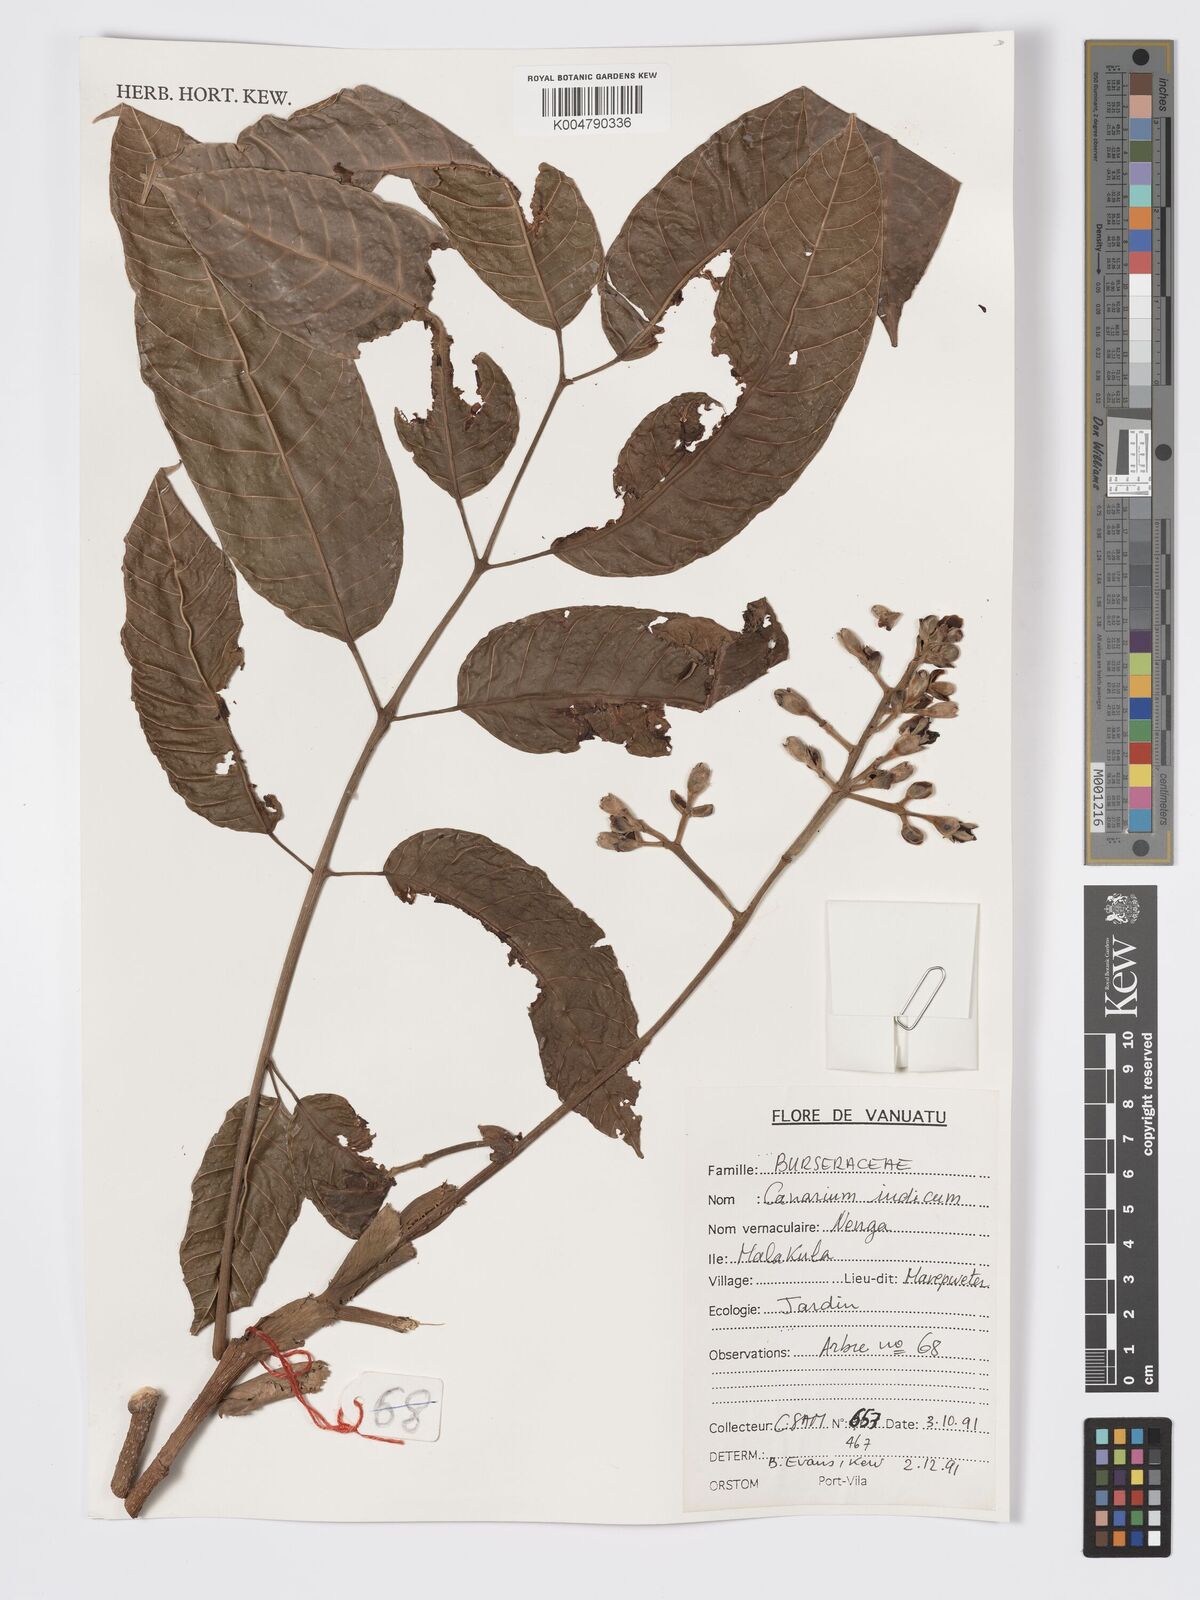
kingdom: Plantae
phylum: Tracheophyta
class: Magnoliopsida
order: Sapindales
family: Burseraceae
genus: Canarium
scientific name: Canarium indicum
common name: Canarium-nut
